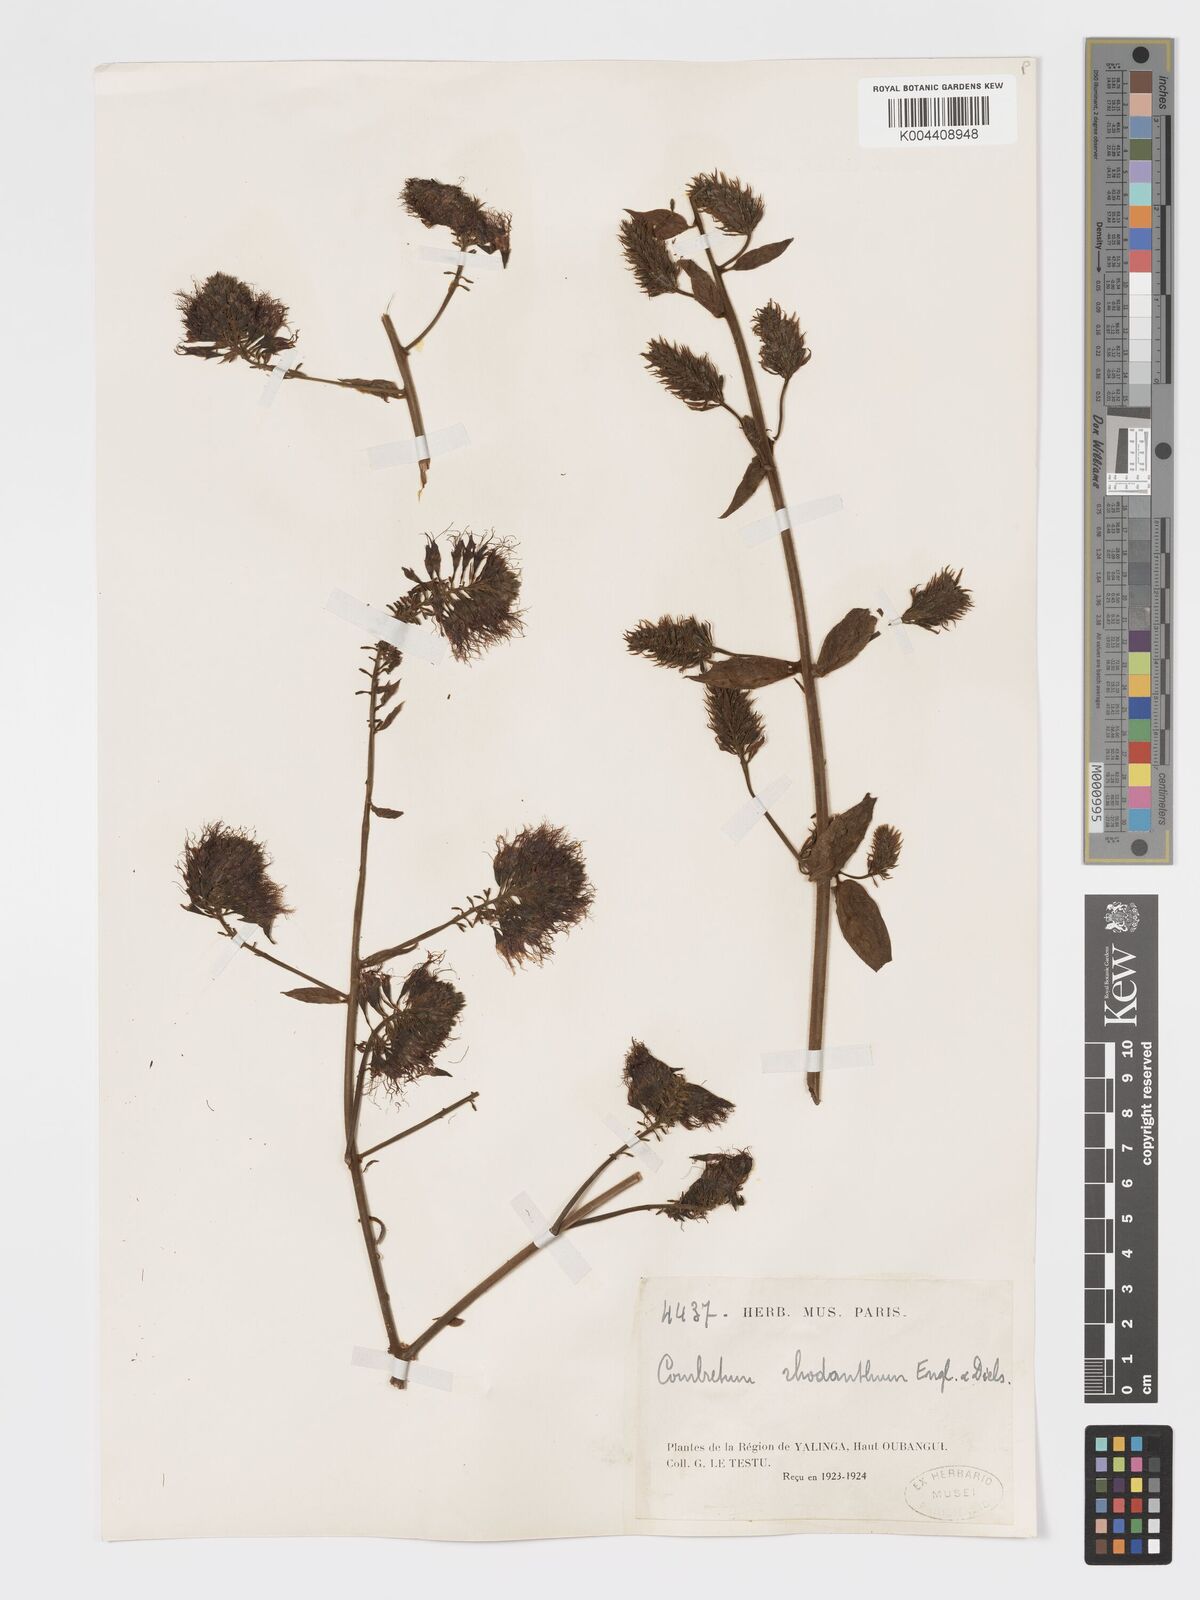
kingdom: Plantae
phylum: Tracheophyta
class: Magnoliopsida
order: Myrtales
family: Combretaceae
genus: Combretum
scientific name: Combretum comosum
